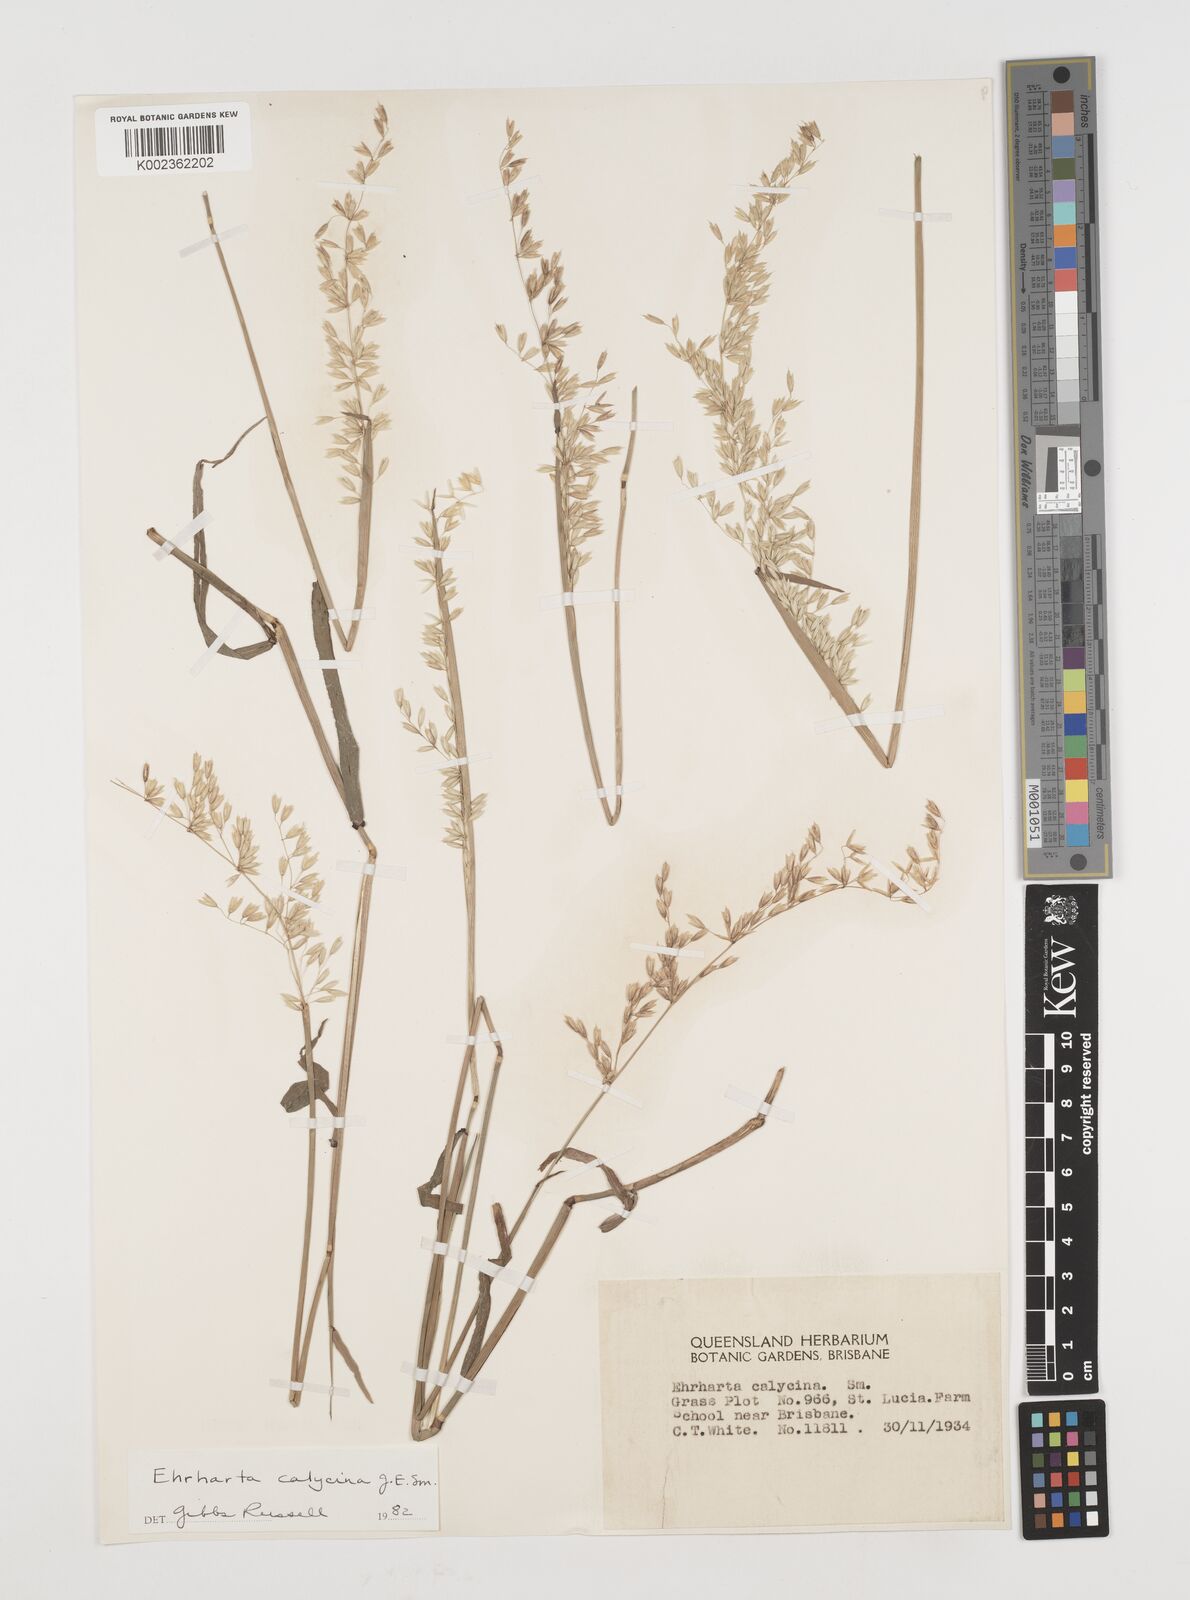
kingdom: Plantae
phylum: Tracheophyta
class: Liliopsida
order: Poales
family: Poaceae
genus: Ehrharta
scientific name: Ehrharta calycina
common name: Perennial veldtgrass
